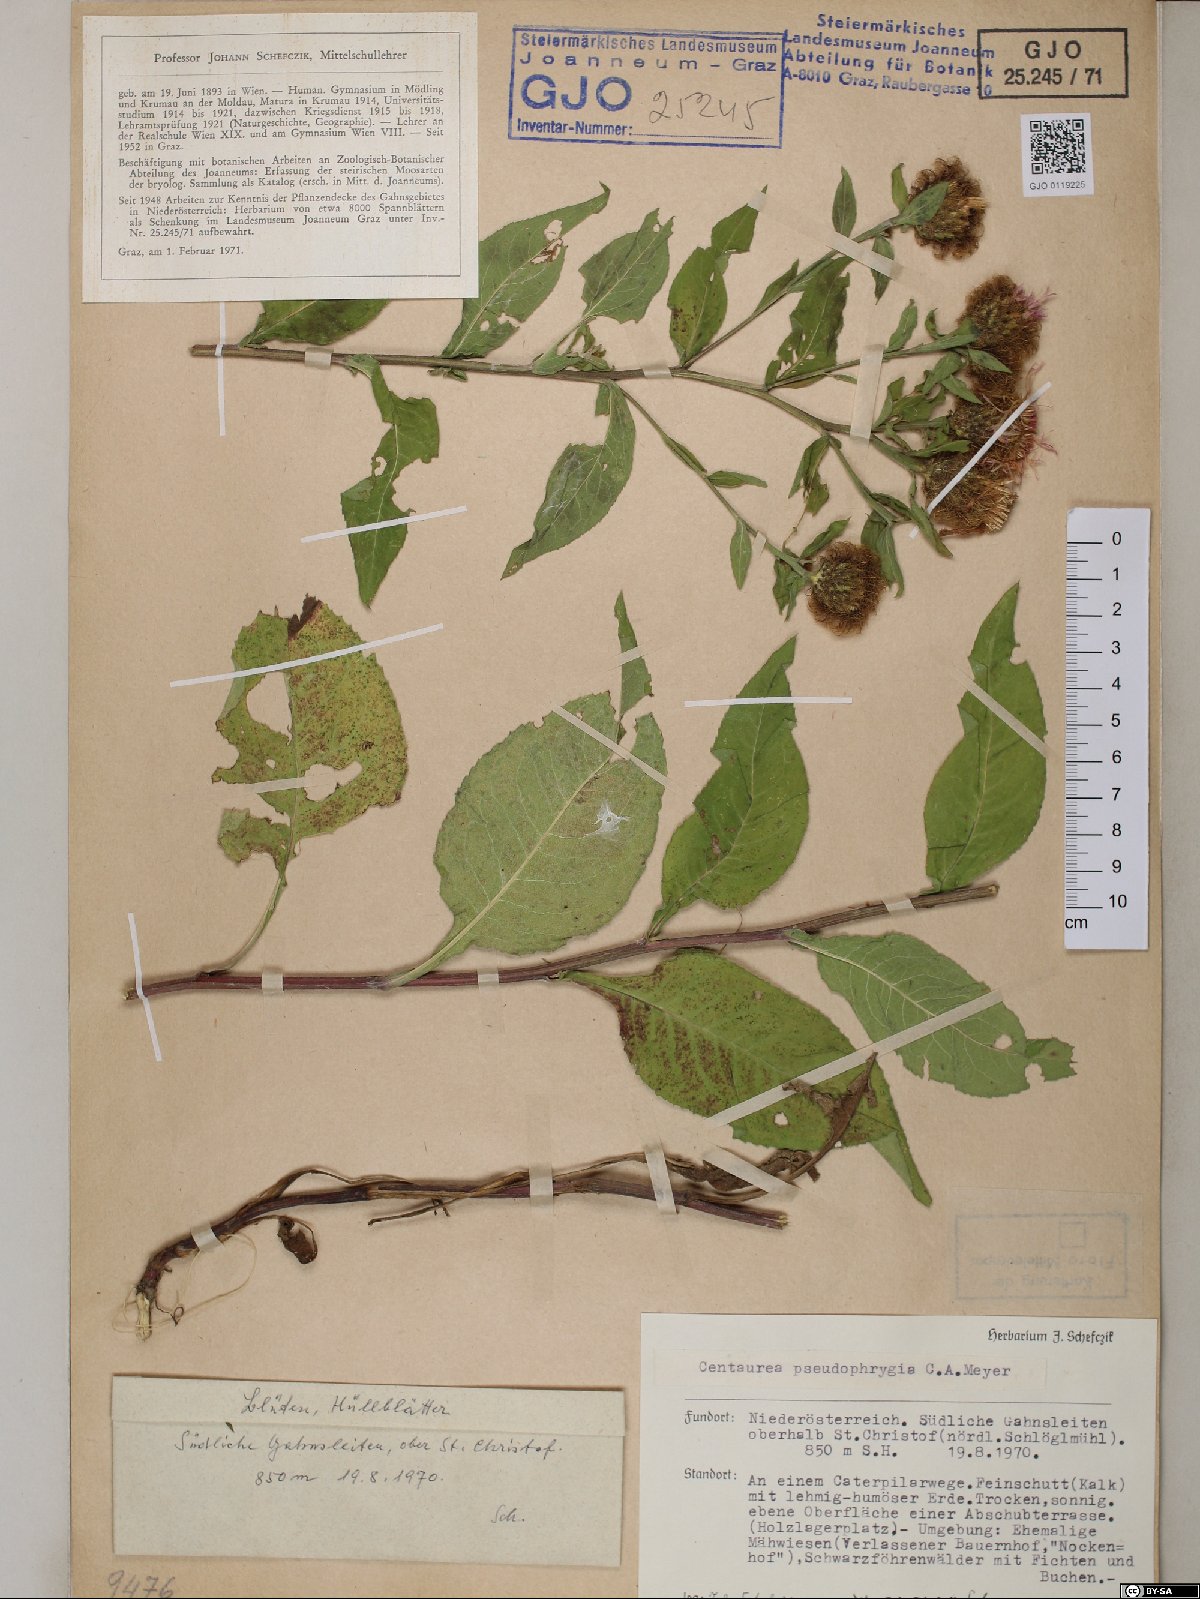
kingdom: Plantae
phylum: Tracheophyta
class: Magnoliopsida
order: Asterales
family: Asteraceae
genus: Centaurea
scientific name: Centaurea pseudophrygia
